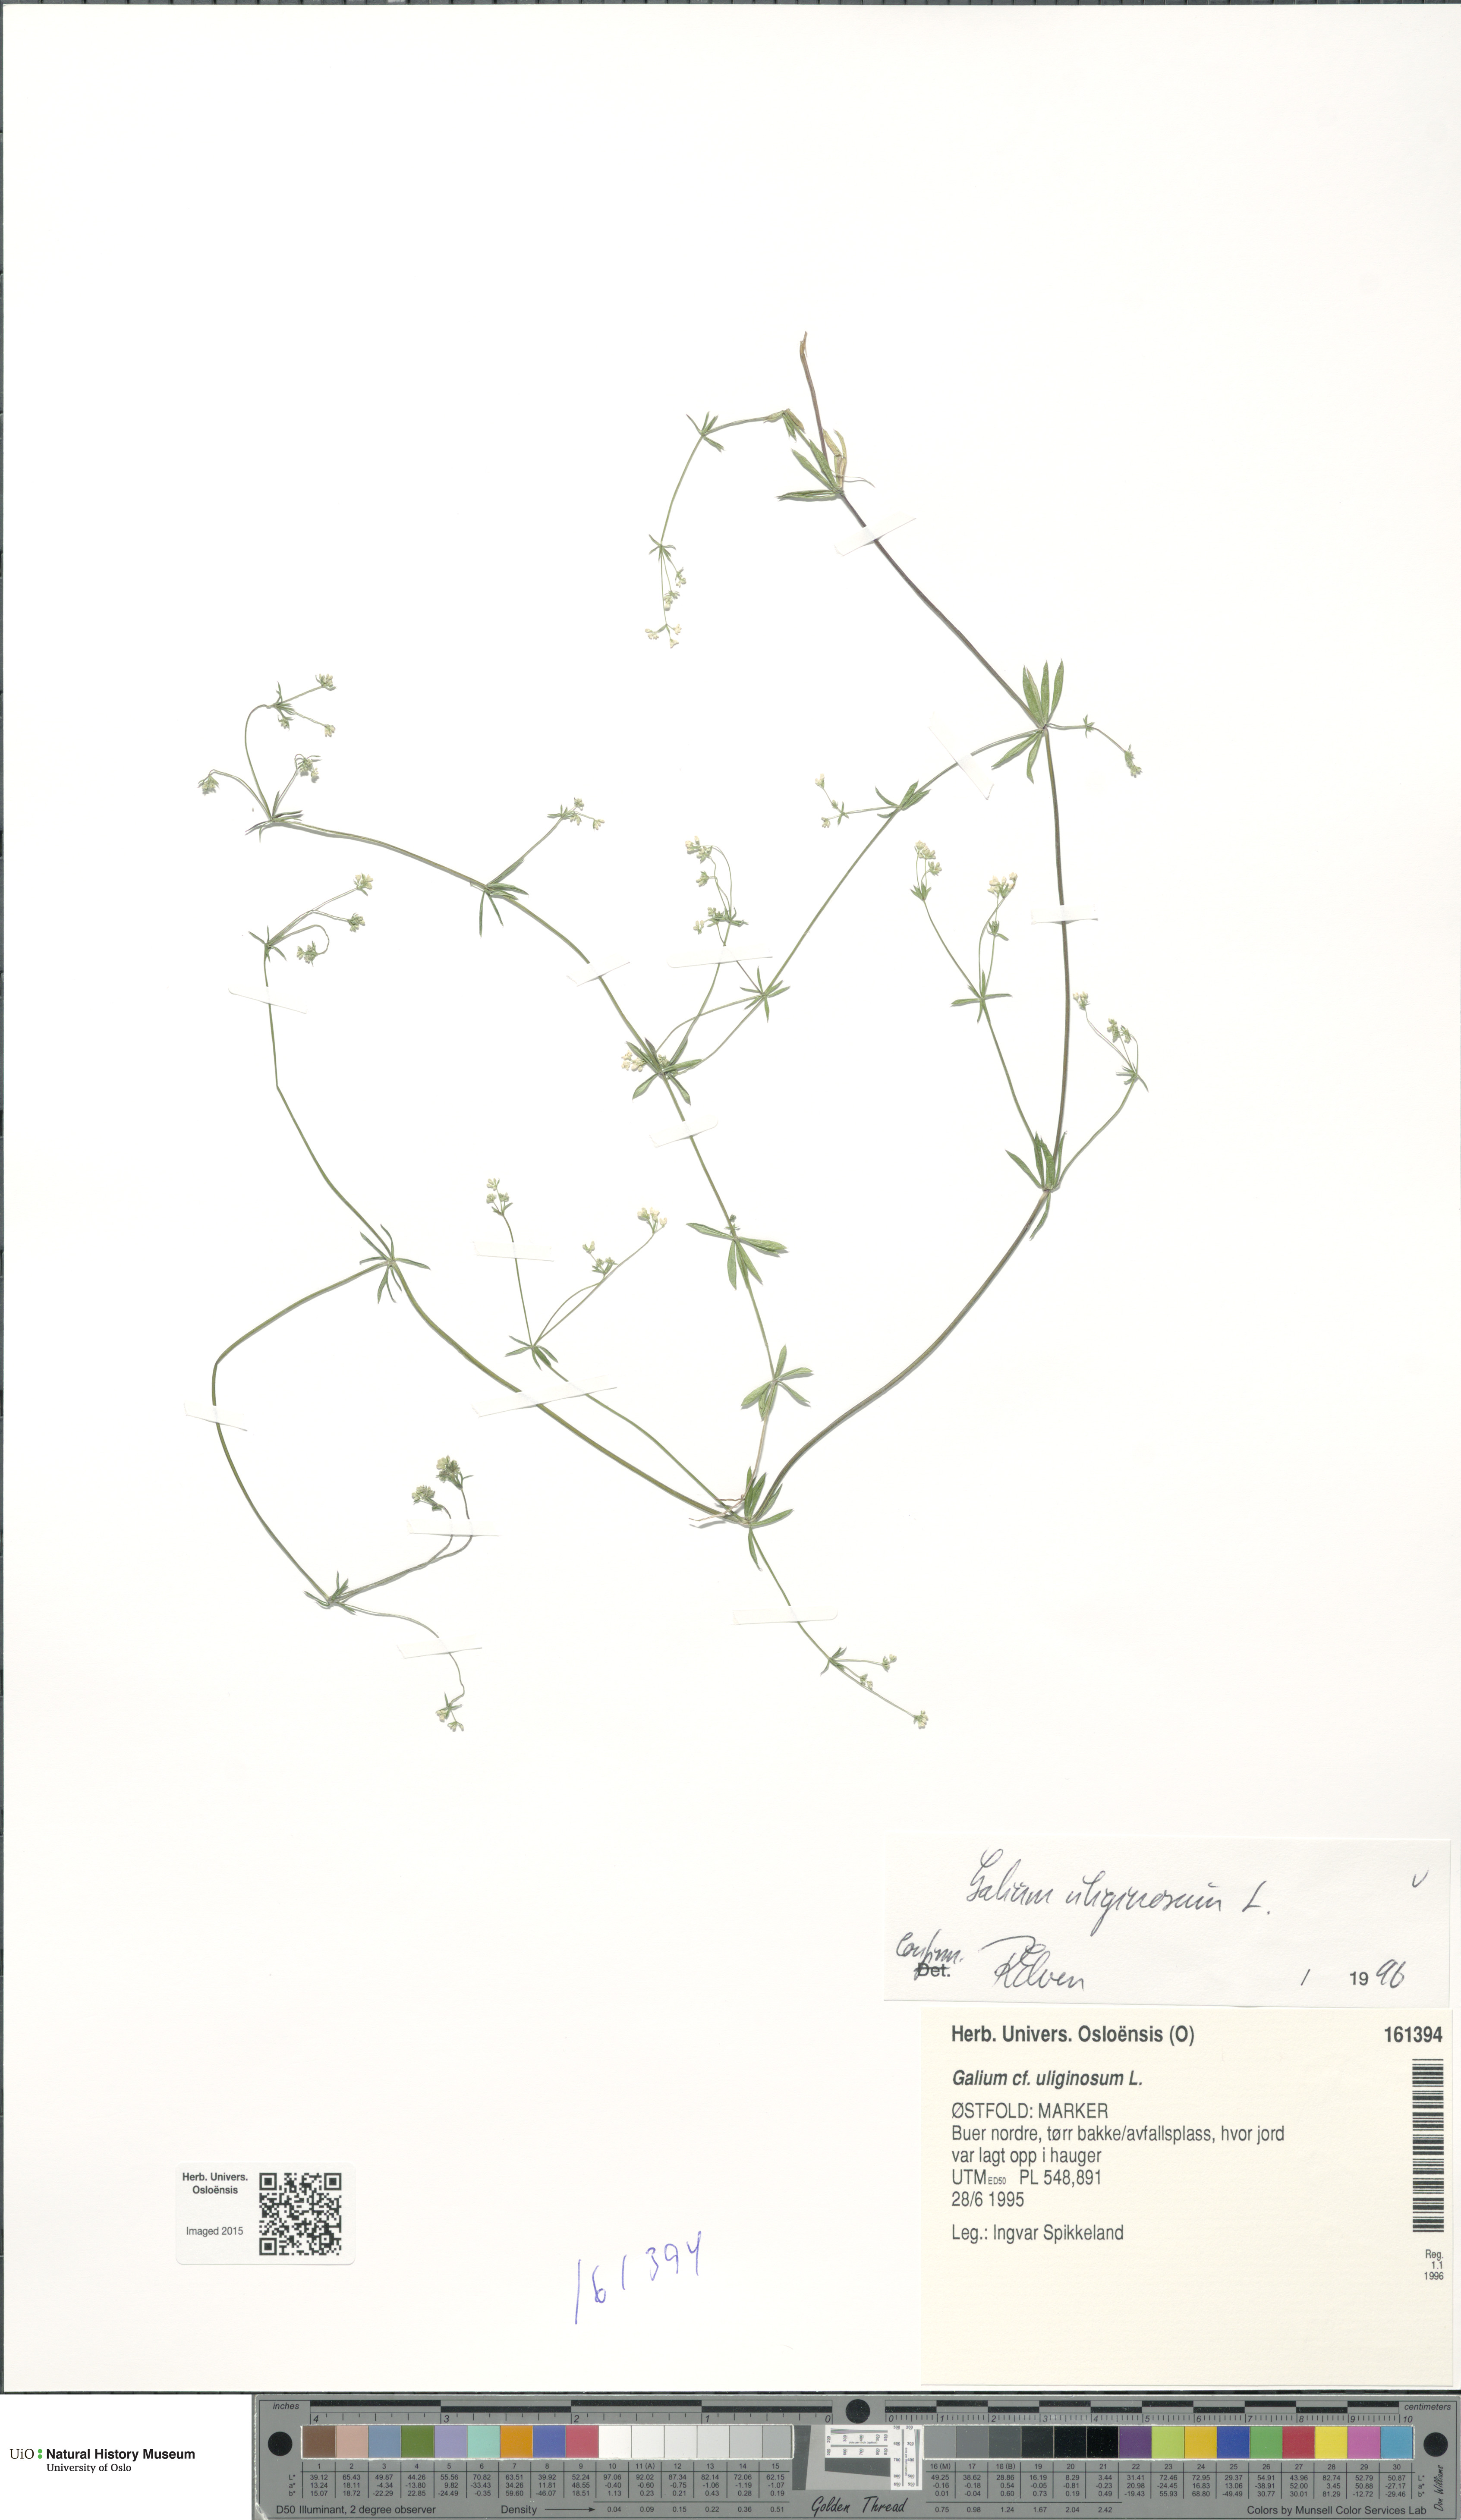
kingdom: Plantae
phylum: Tracheophyta
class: Magnoliopsida
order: Gentianales
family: Rubiaceae
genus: Galium
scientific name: Galium uliginosum
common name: Fen bedstraw
